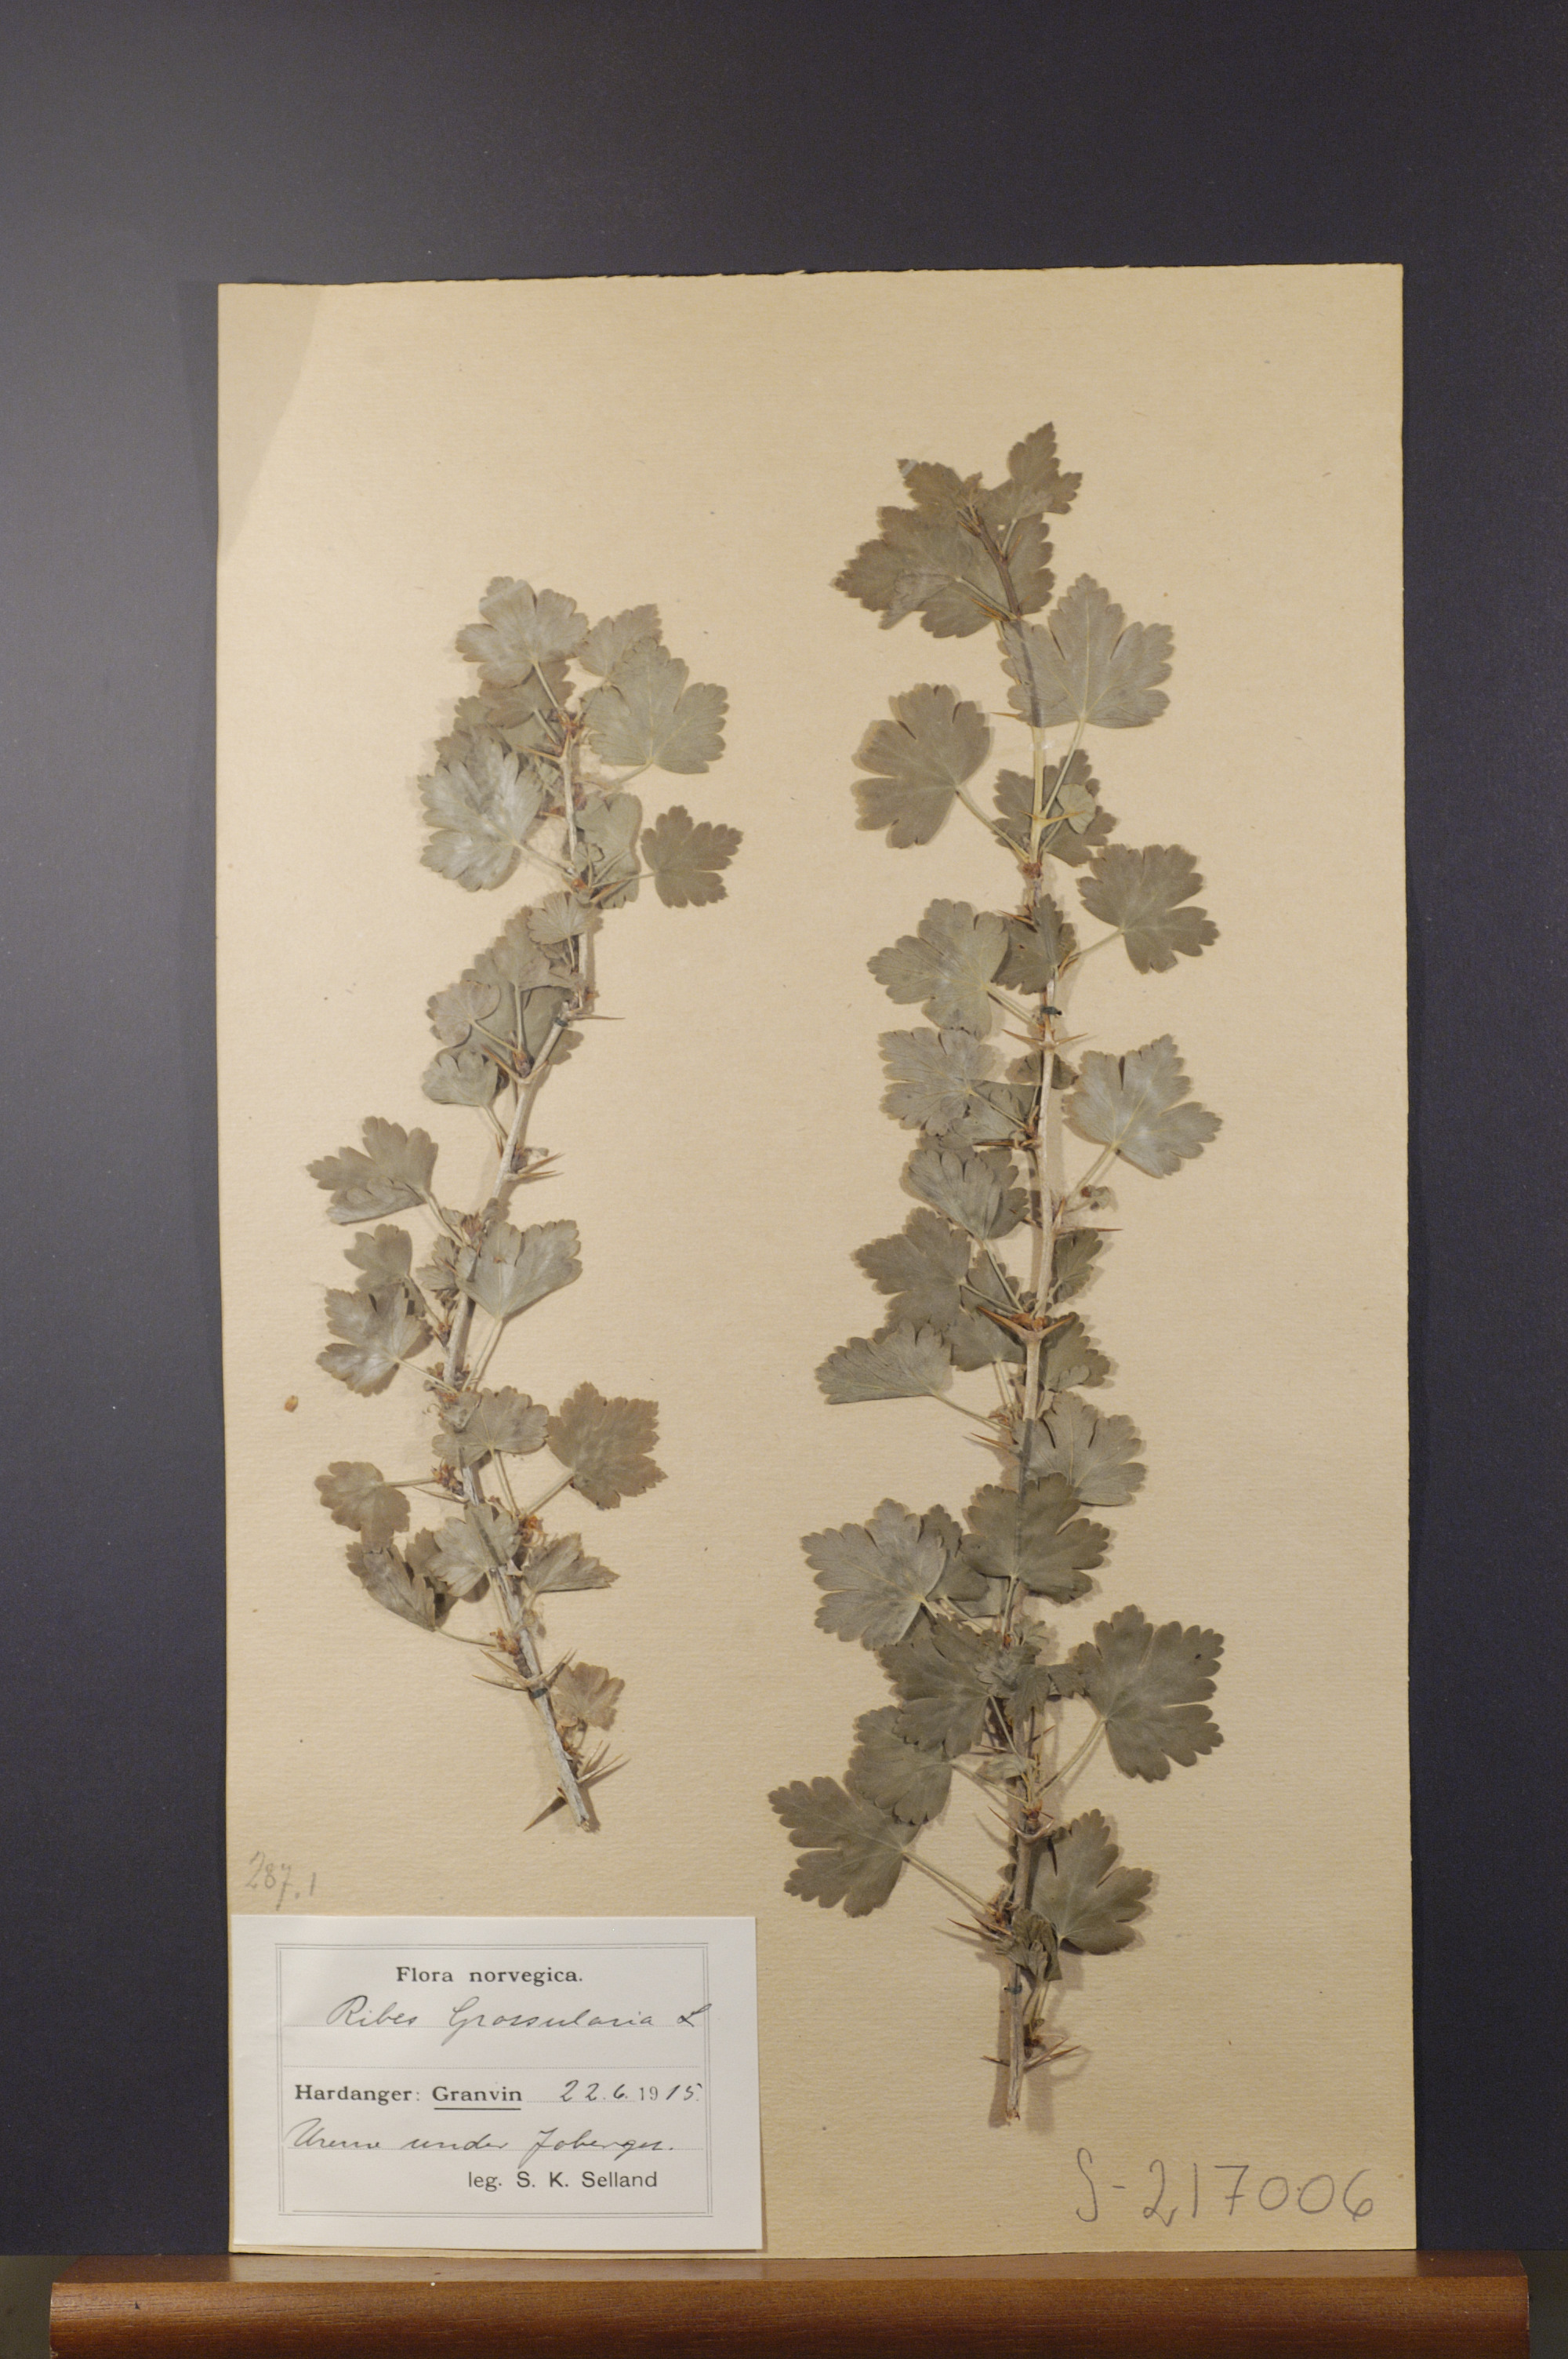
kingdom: Plantae
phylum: Tracheophyta
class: Magnoliopsida
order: Saxifragales
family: Grossulariaceae
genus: Ribes
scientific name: Ribes uva-crispa
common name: Gooseberry
